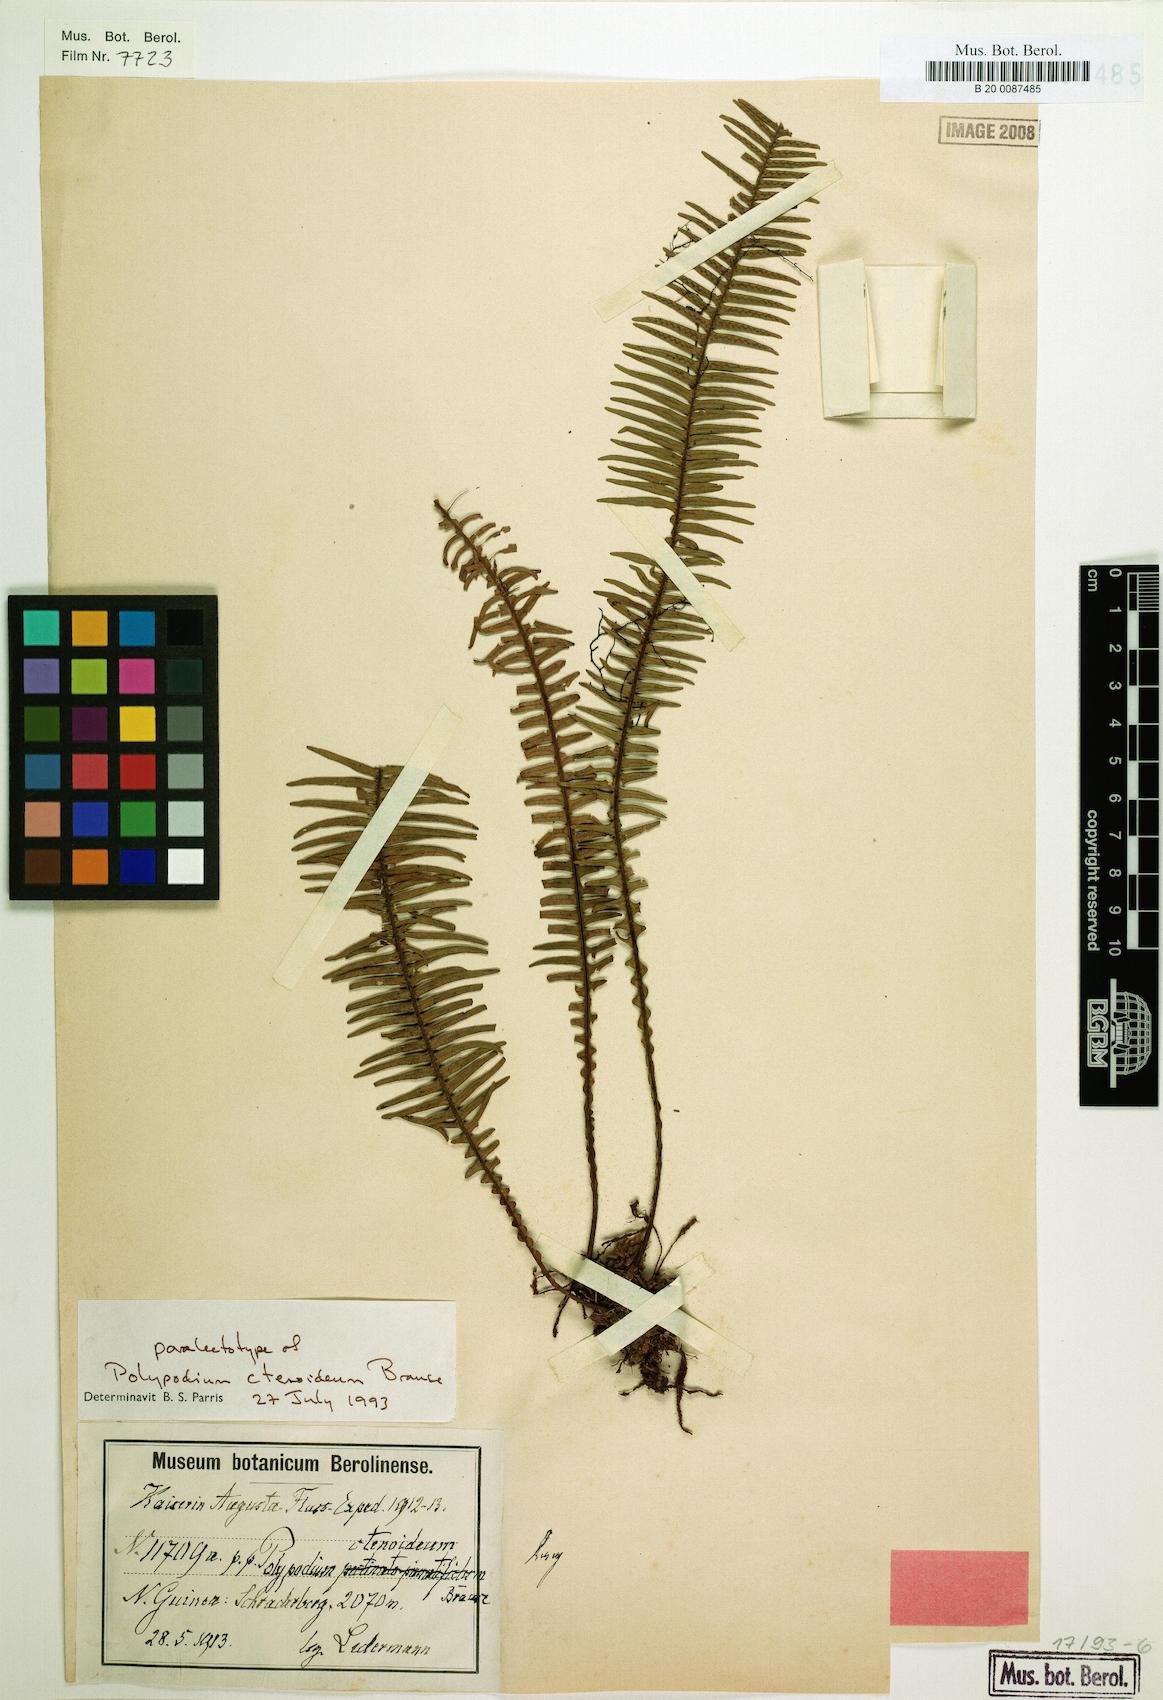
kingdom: Plantae
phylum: Tracheophyta
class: Polypodiopsida
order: Polypodiales
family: Polypodiaceae
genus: Oreogrammitis
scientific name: Oreogrammitis ctenoidea
